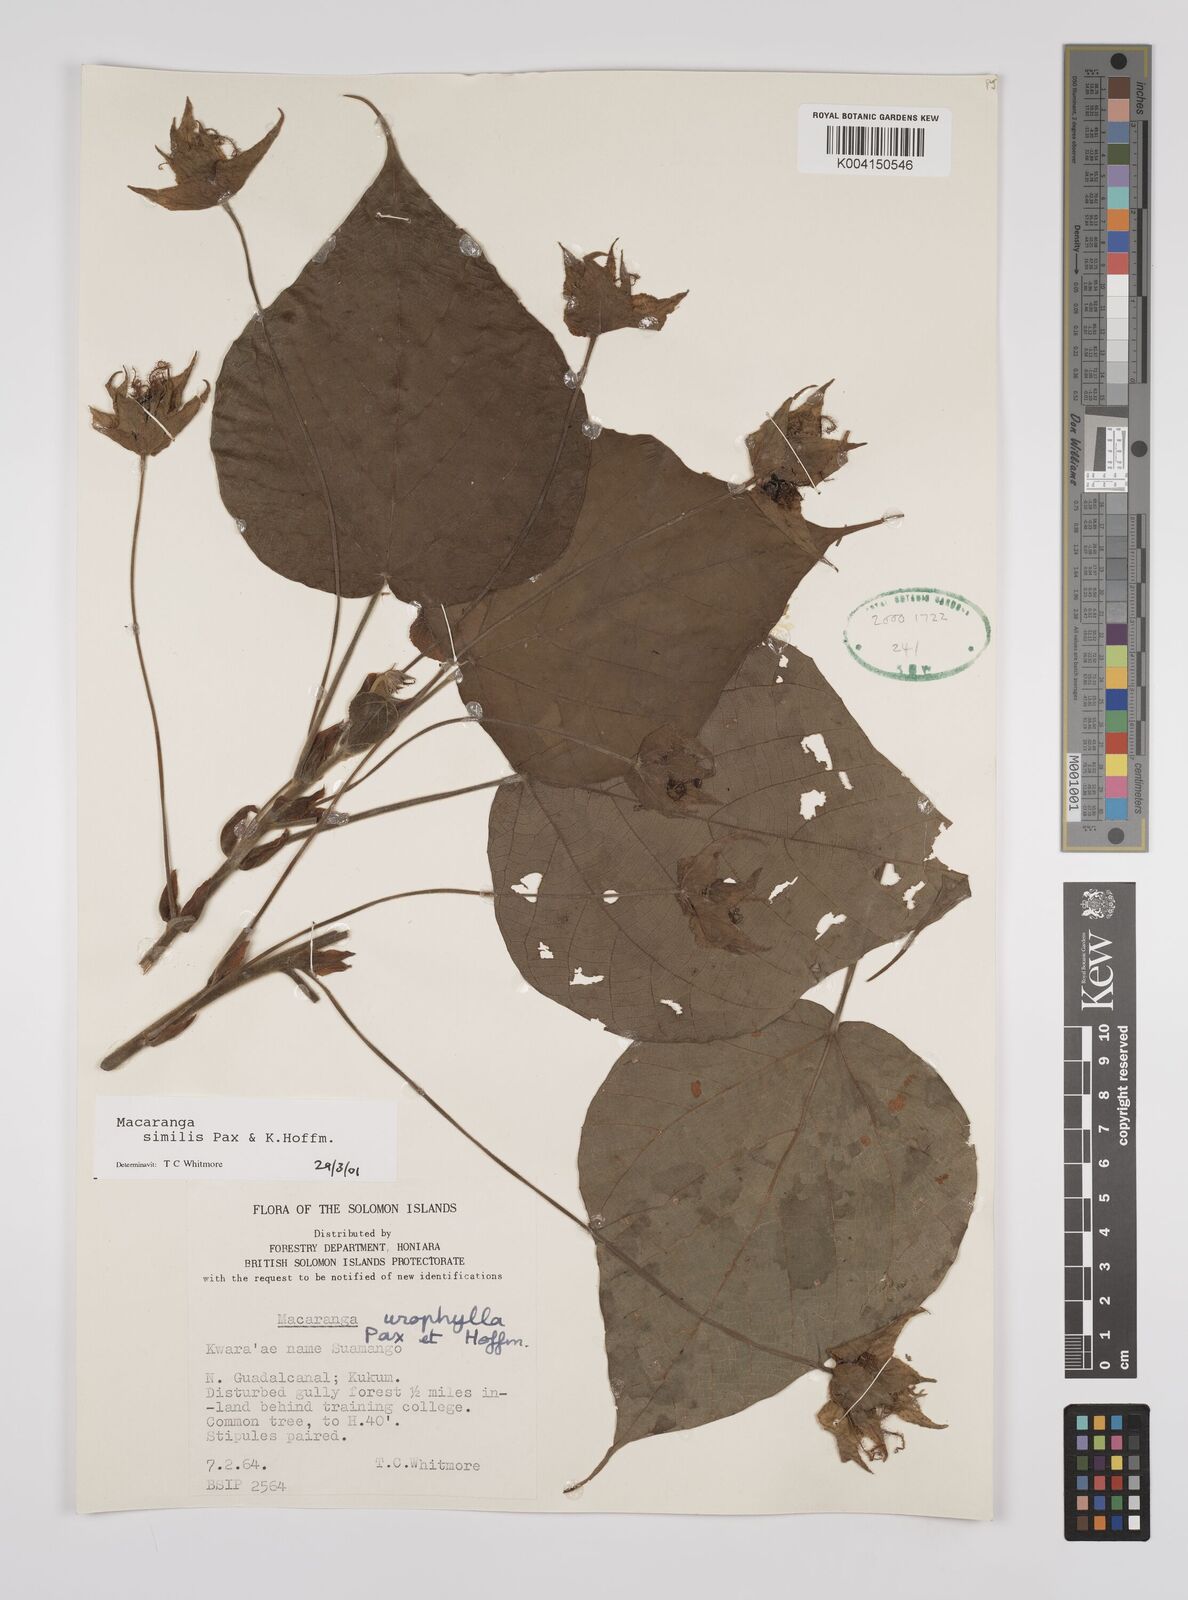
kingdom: Plantae
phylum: Tracheophyta
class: Magnoliopsida
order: Malpighiales
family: Euphorbiaceae
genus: Macaranga
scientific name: Macaranga similis
